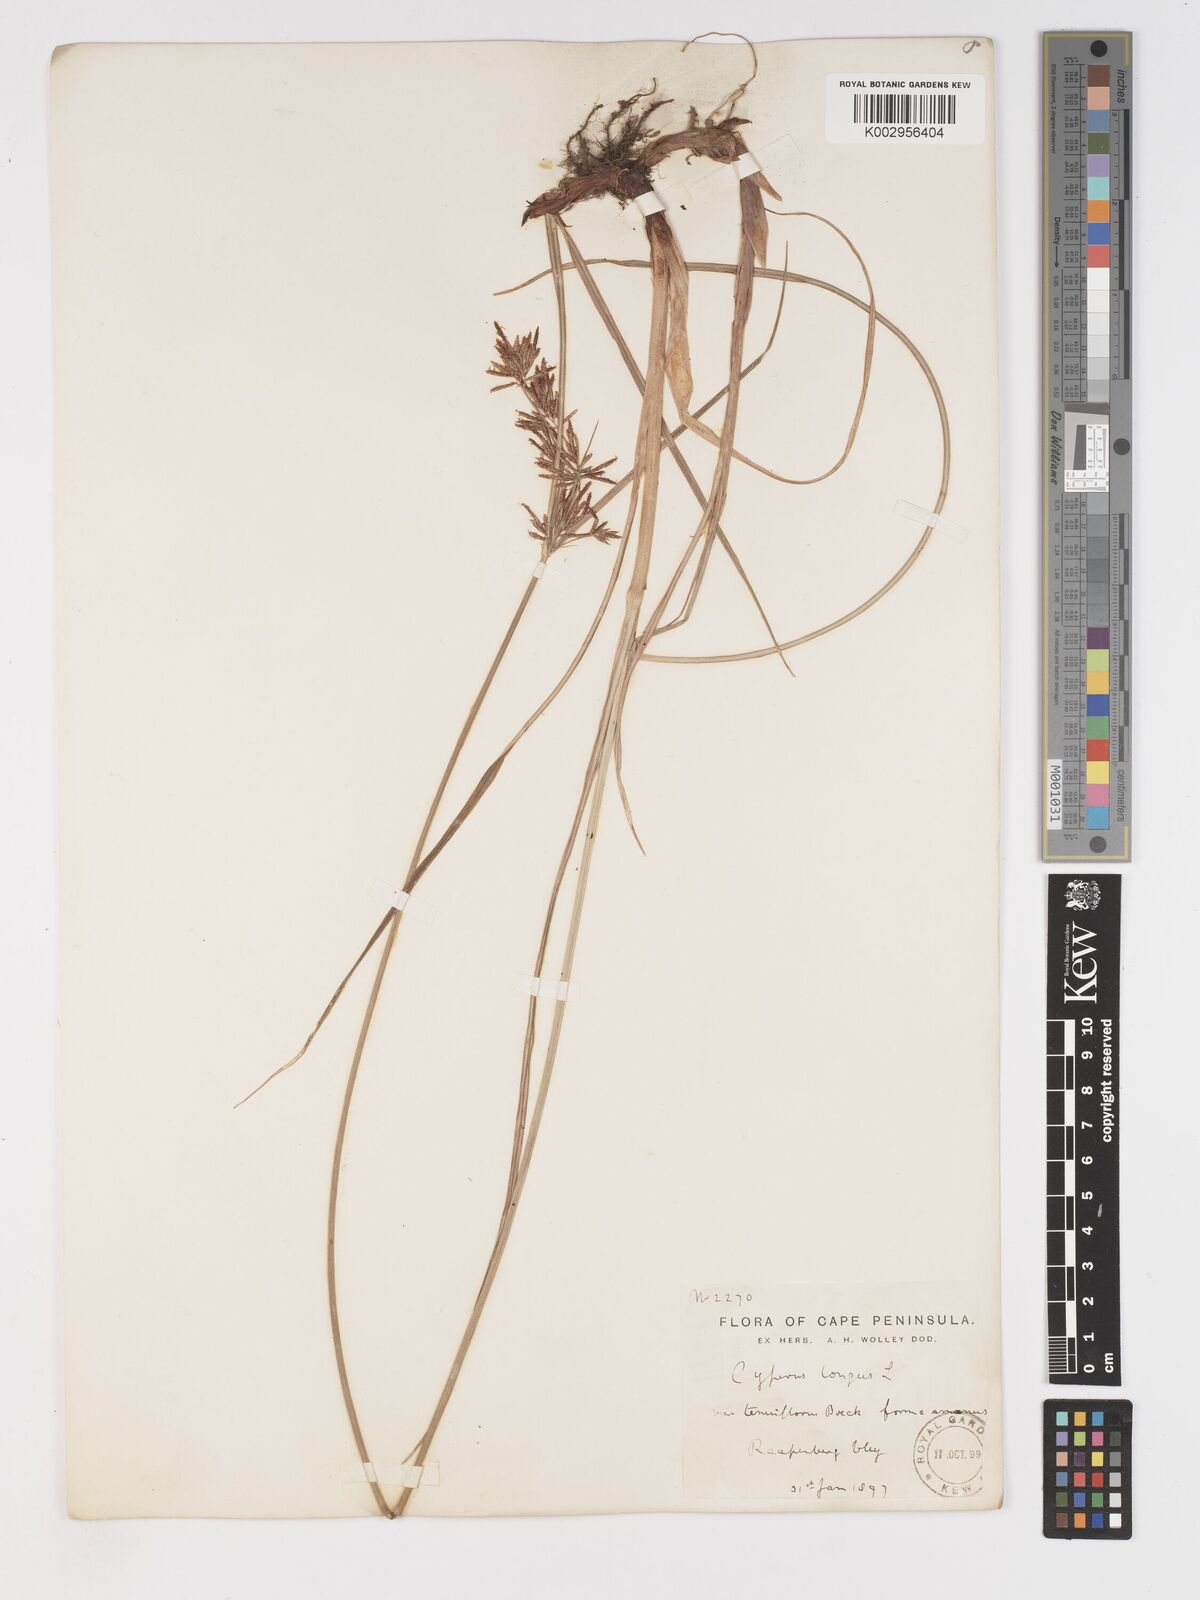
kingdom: Plantae
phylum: Tracheophyta
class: Liliopsida
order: Poales
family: Cyperaceae
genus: Cyperus
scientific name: Cyperus longus
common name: Galingale
